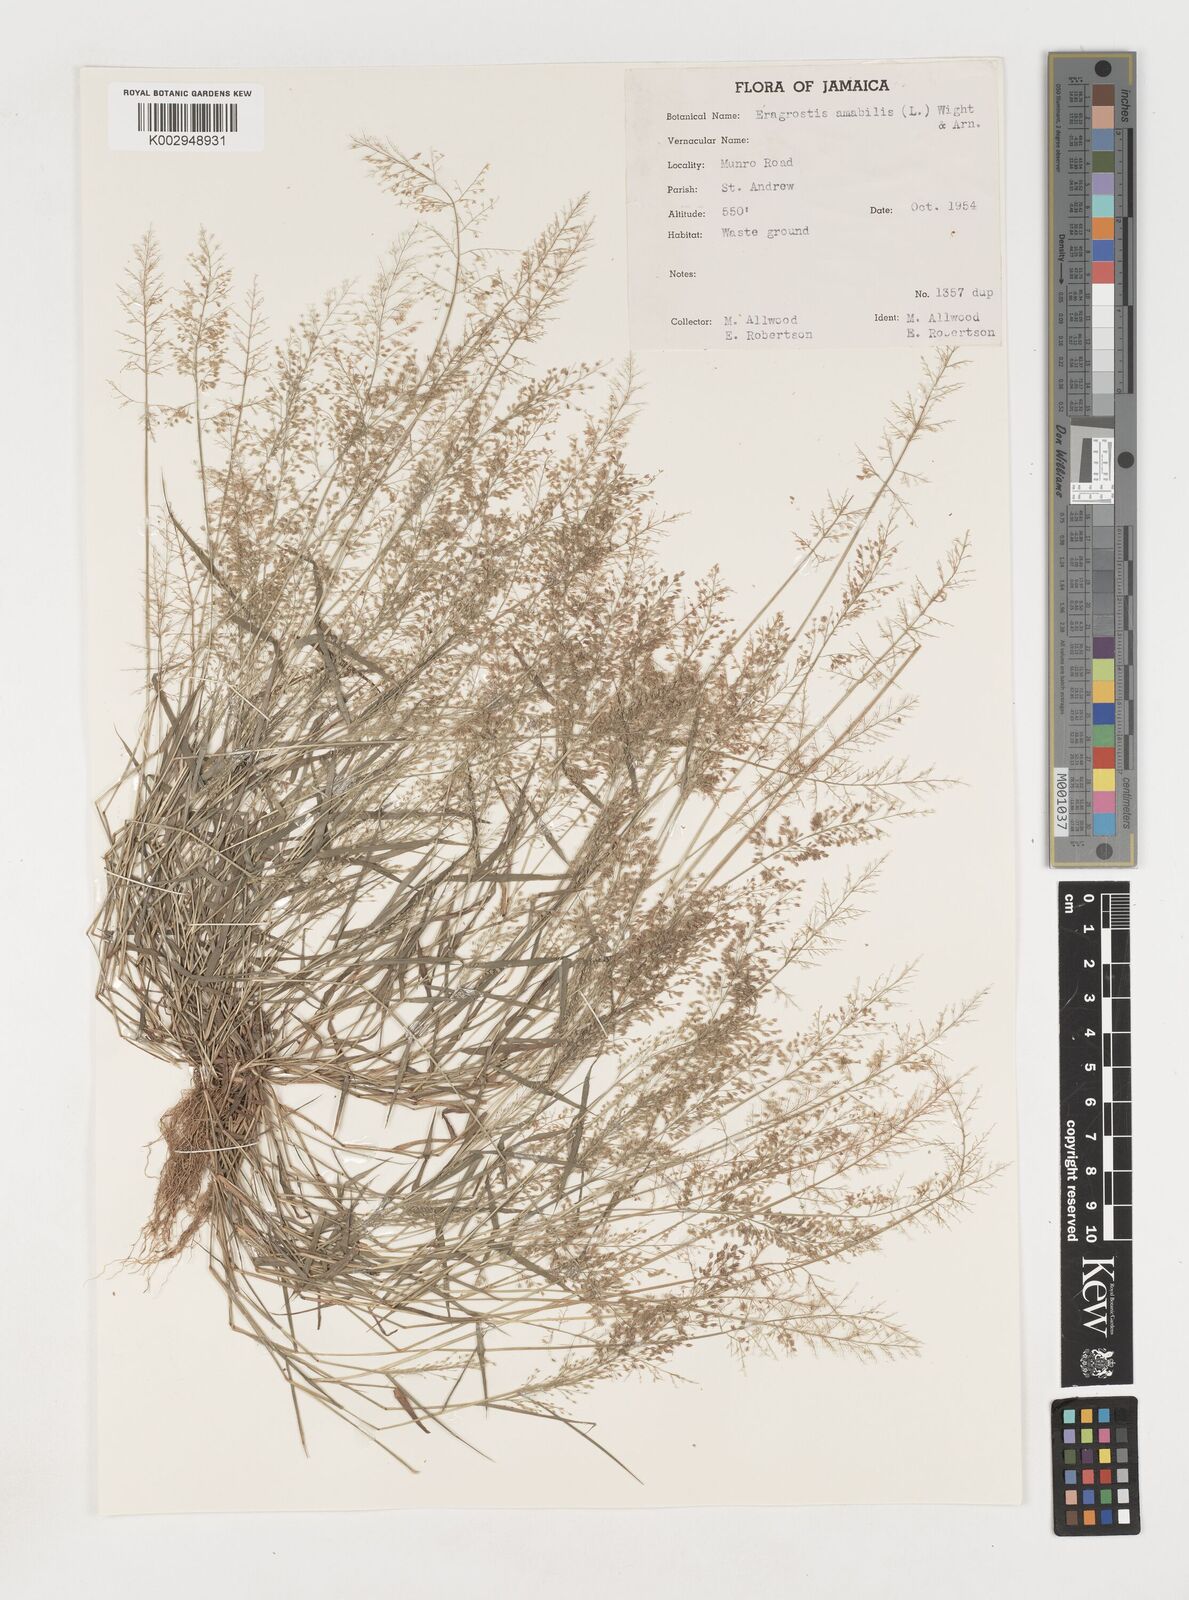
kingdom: Plantae
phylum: Tracheophyta
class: Liliopsida
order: Poales
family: Poaceae
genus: Eragrostis
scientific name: Eragrostis tenella
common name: Japanese lovegrass
